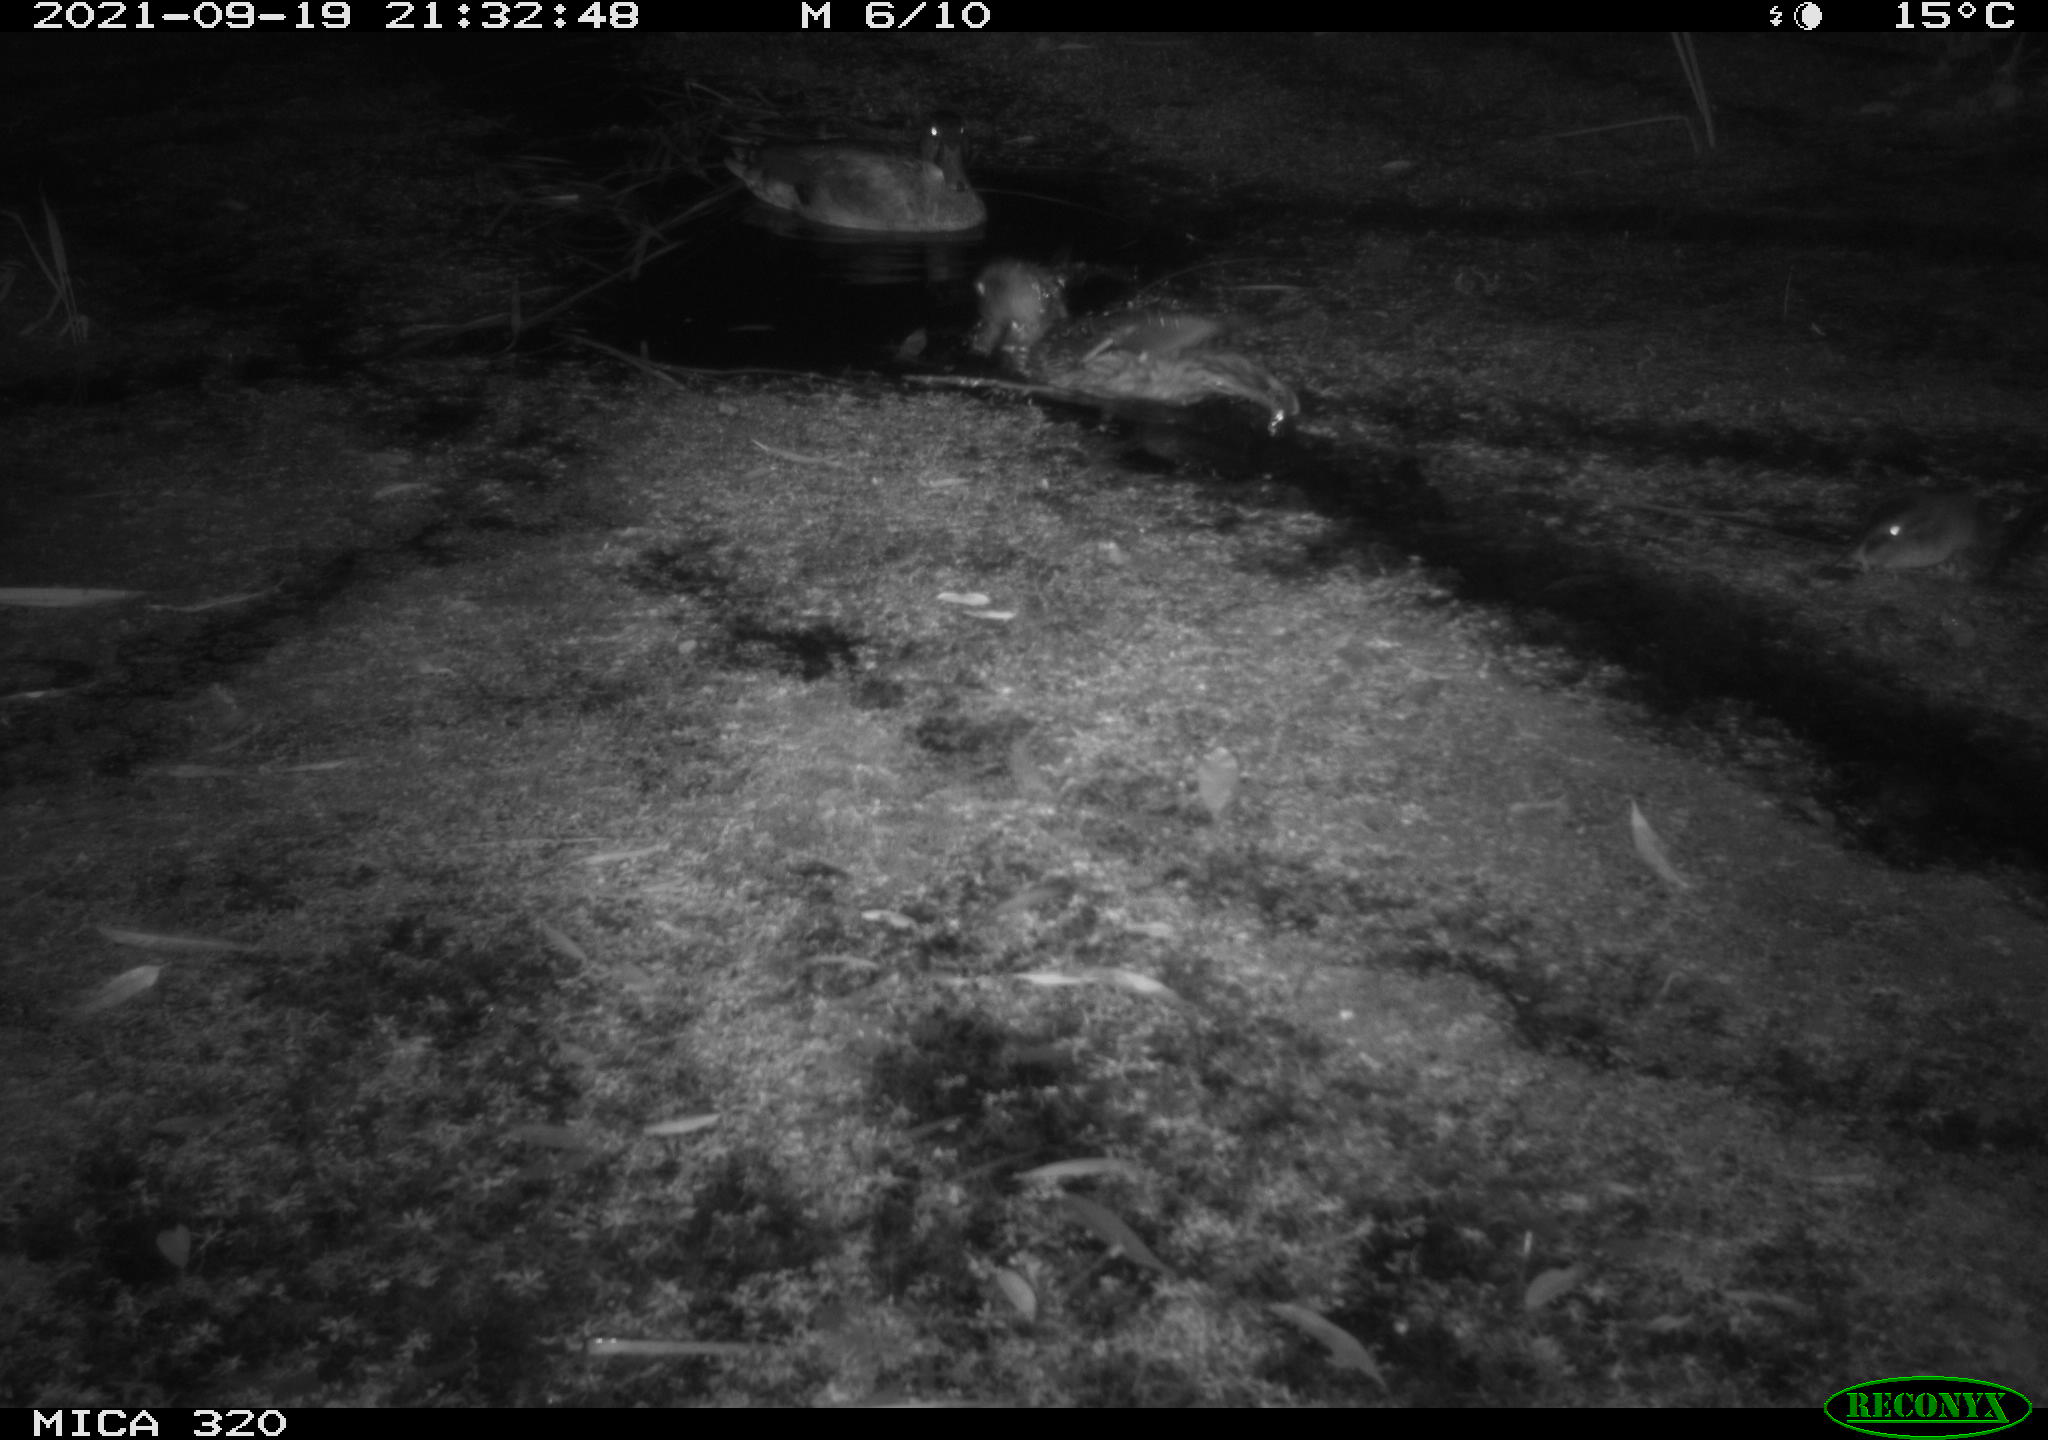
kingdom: Animalia
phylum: Chordata
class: Aves
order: Anseriformes
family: Anatidae
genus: Anas
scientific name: Anas platyrhynchos
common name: Mallard
